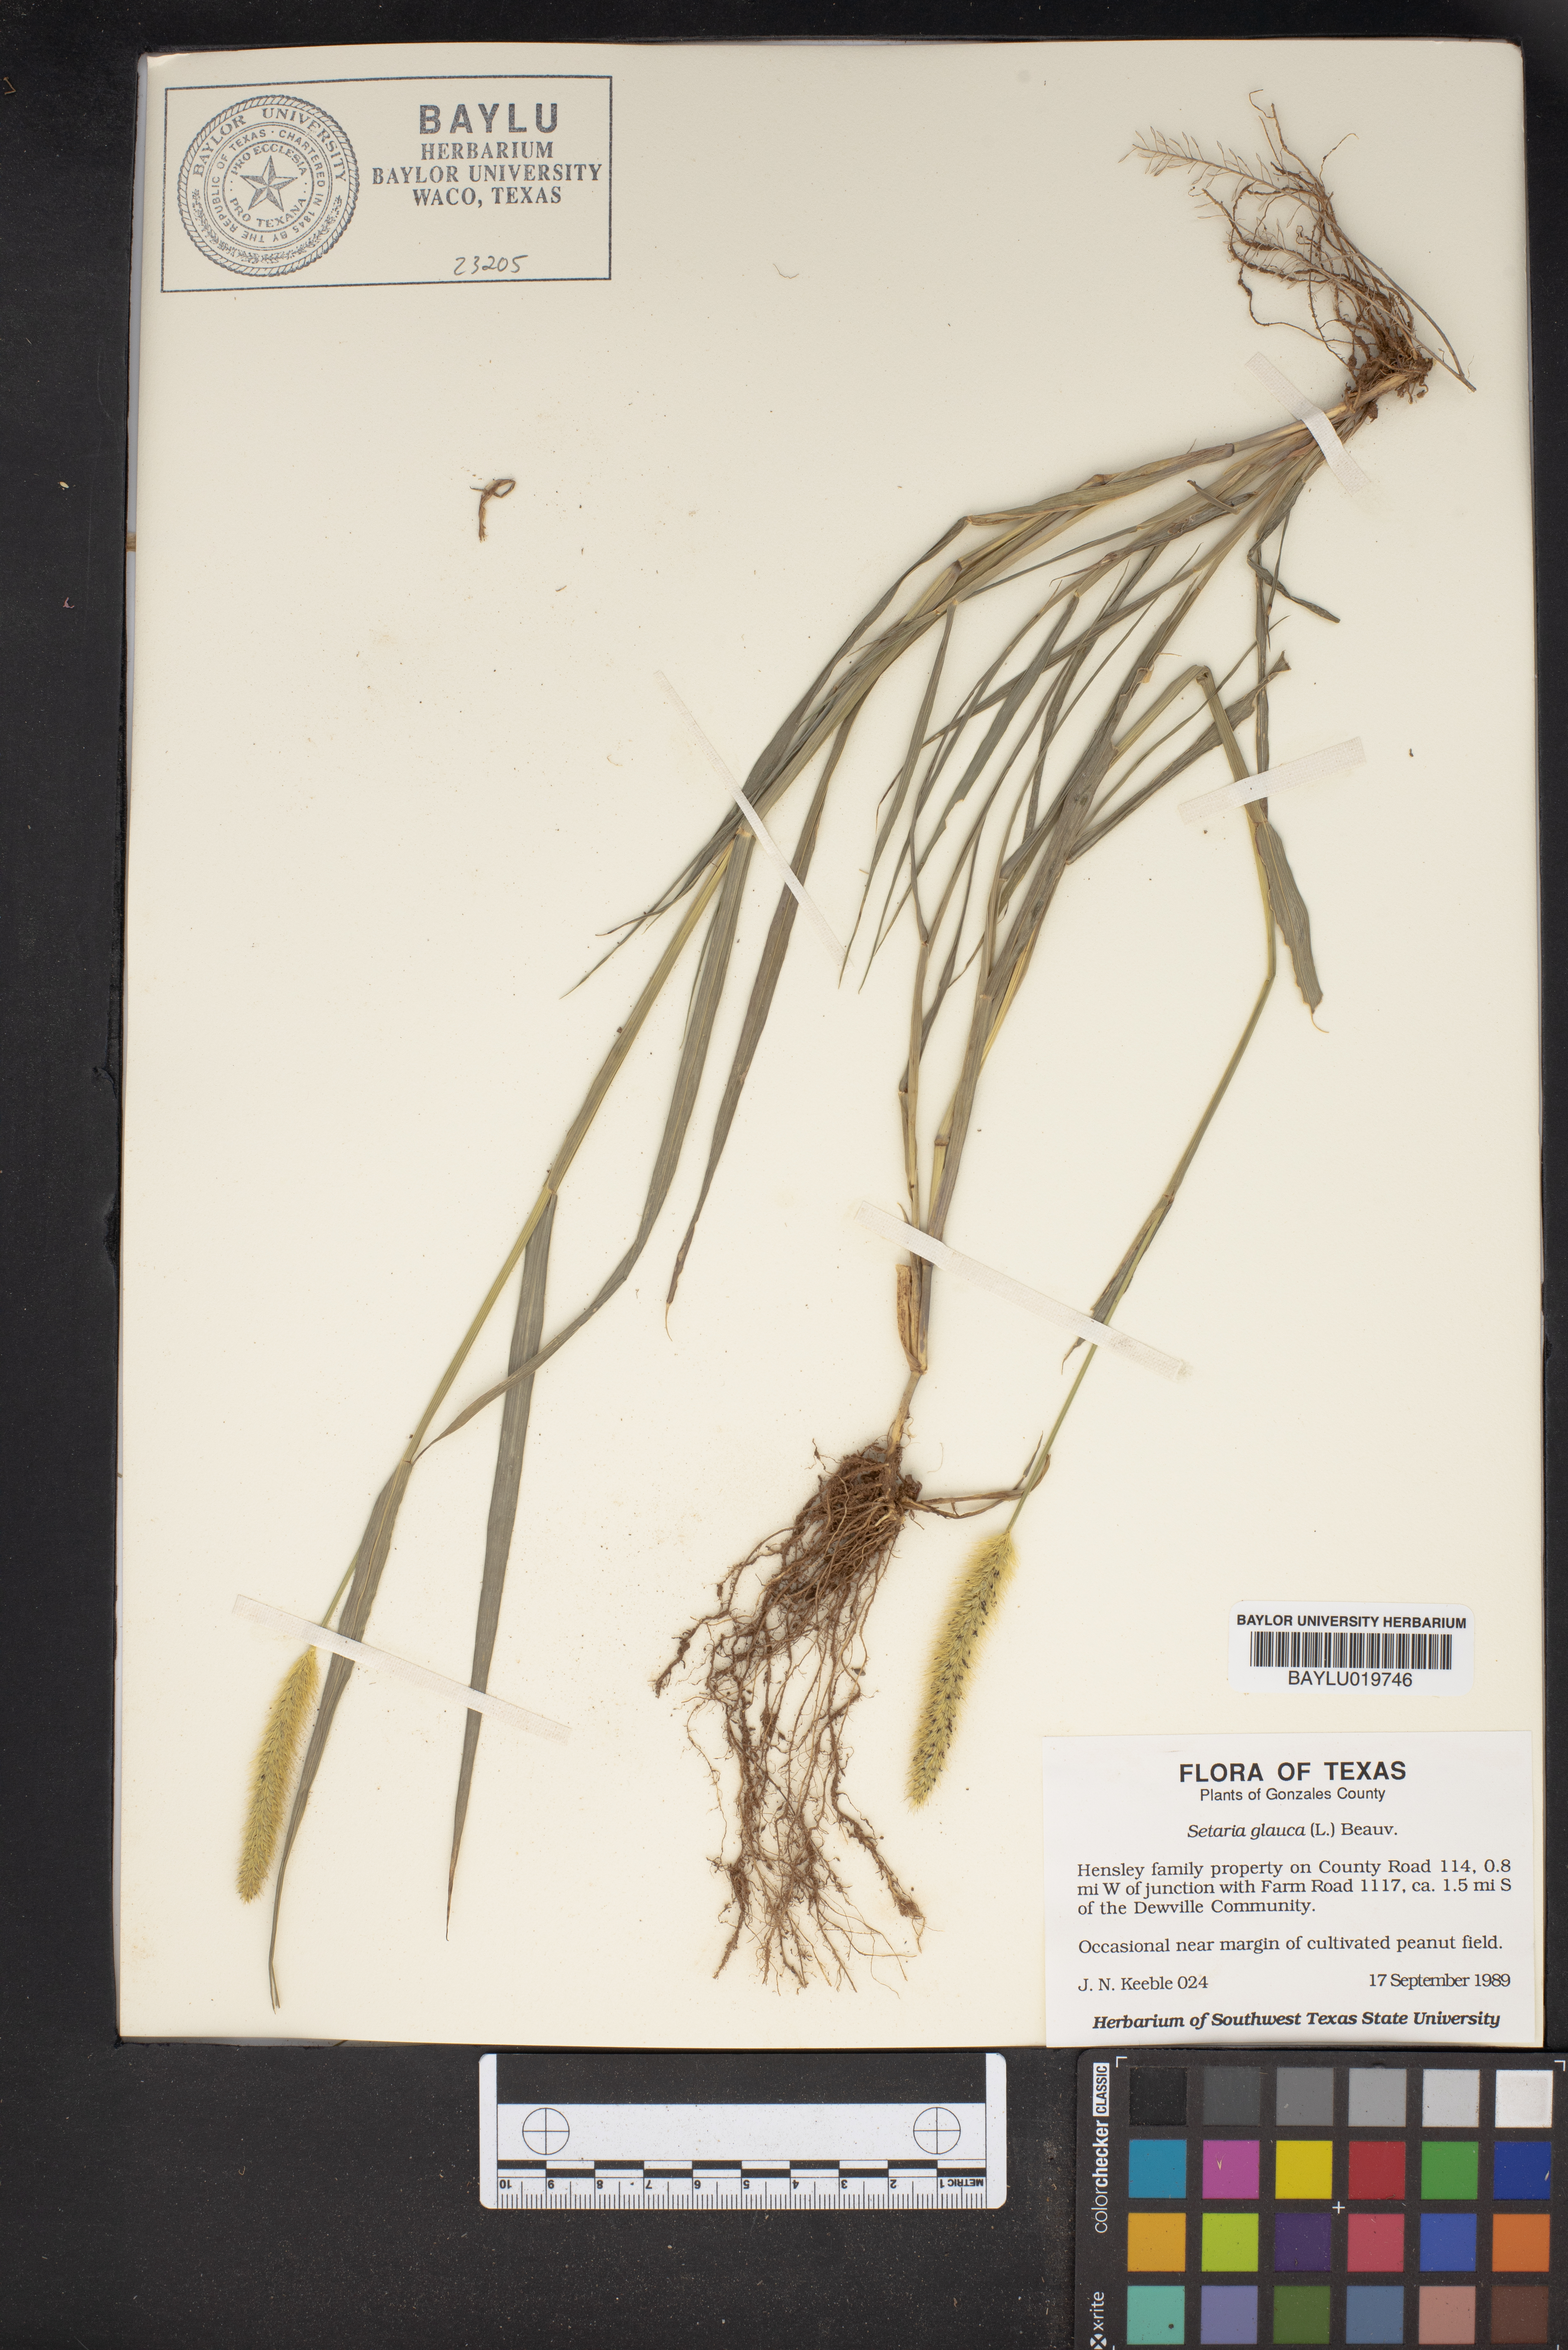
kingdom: Plantae
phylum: Tracheophyta
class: Liliopsida
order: Poales
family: Poaceae
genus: Cenchrus
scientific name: Cenchrus americanus
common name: Pearl millet
